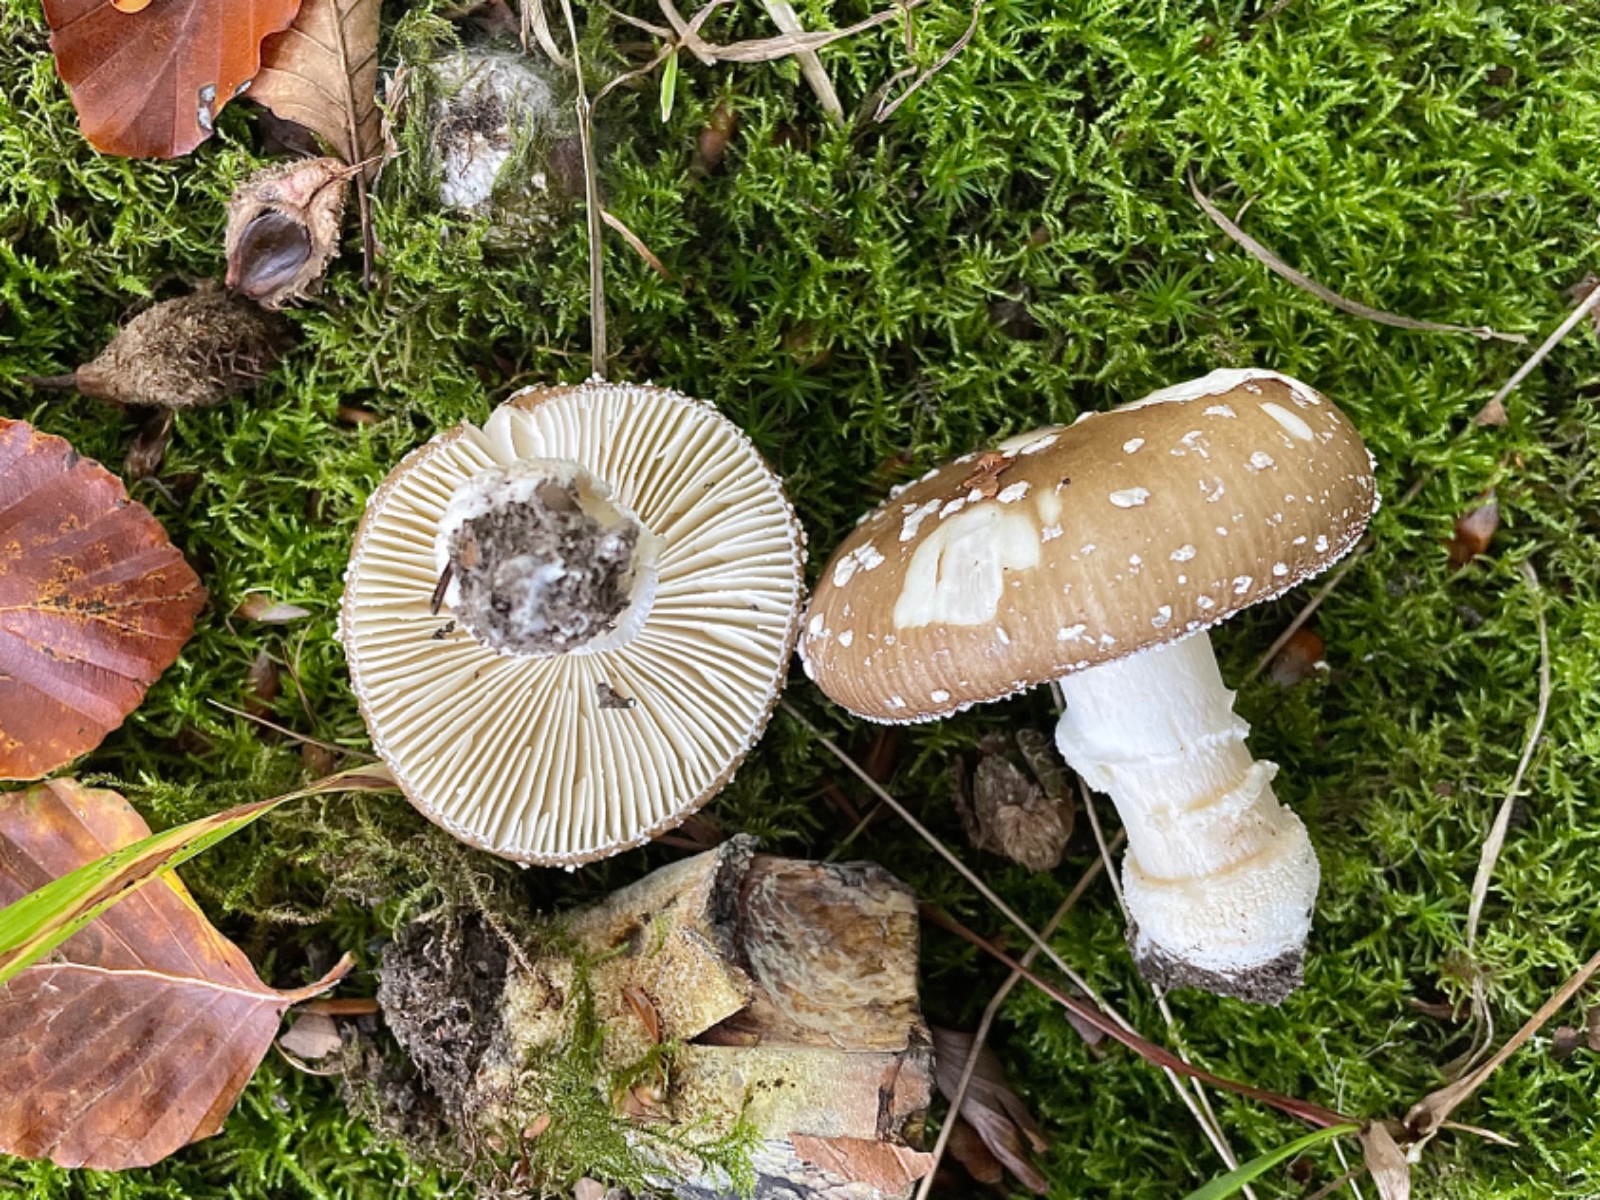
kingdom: Fungi
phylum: Basidiomycota
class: Agaricomycetes
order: Agaricales
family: Amanitaceae
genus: Amanita
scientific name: Amanita pantherina
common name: panter-fluesvamp
